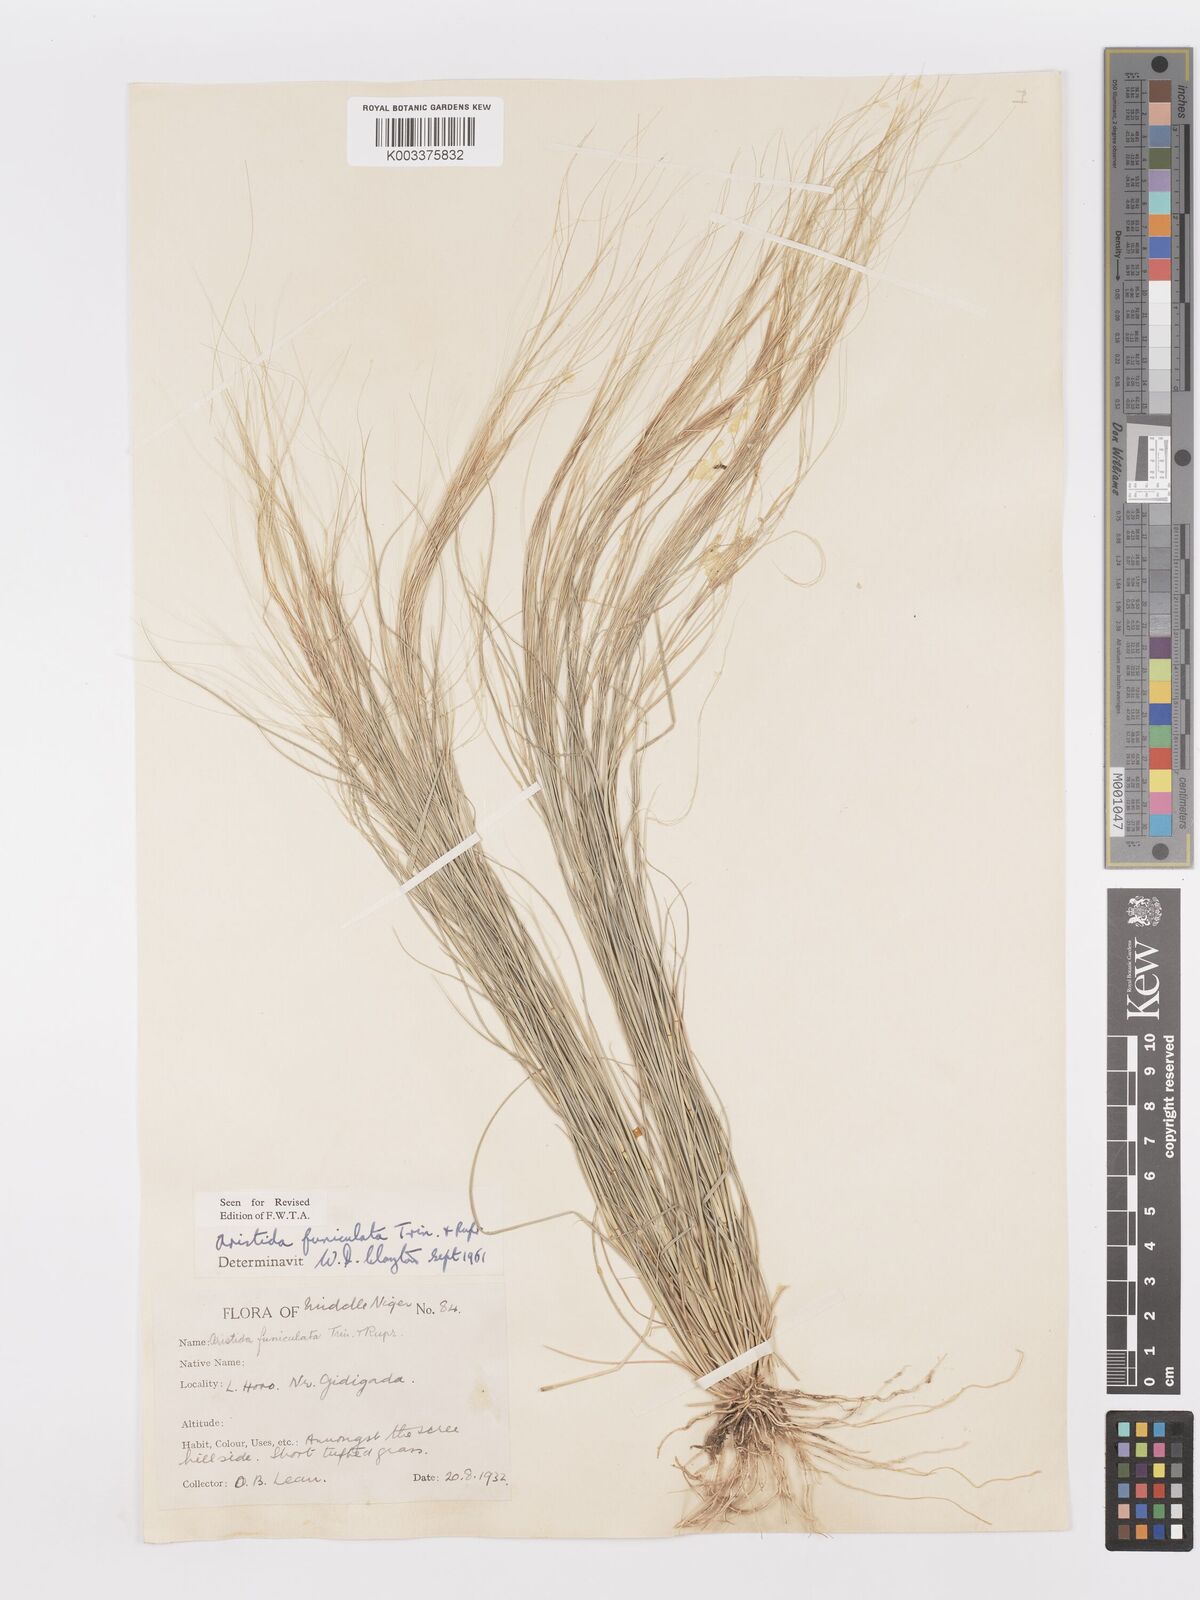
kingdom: Plantae
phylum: Tracheophyta
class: Liliopsida
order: Poales
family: Poaceae
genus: Aristida
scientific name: Aristida funiculata
